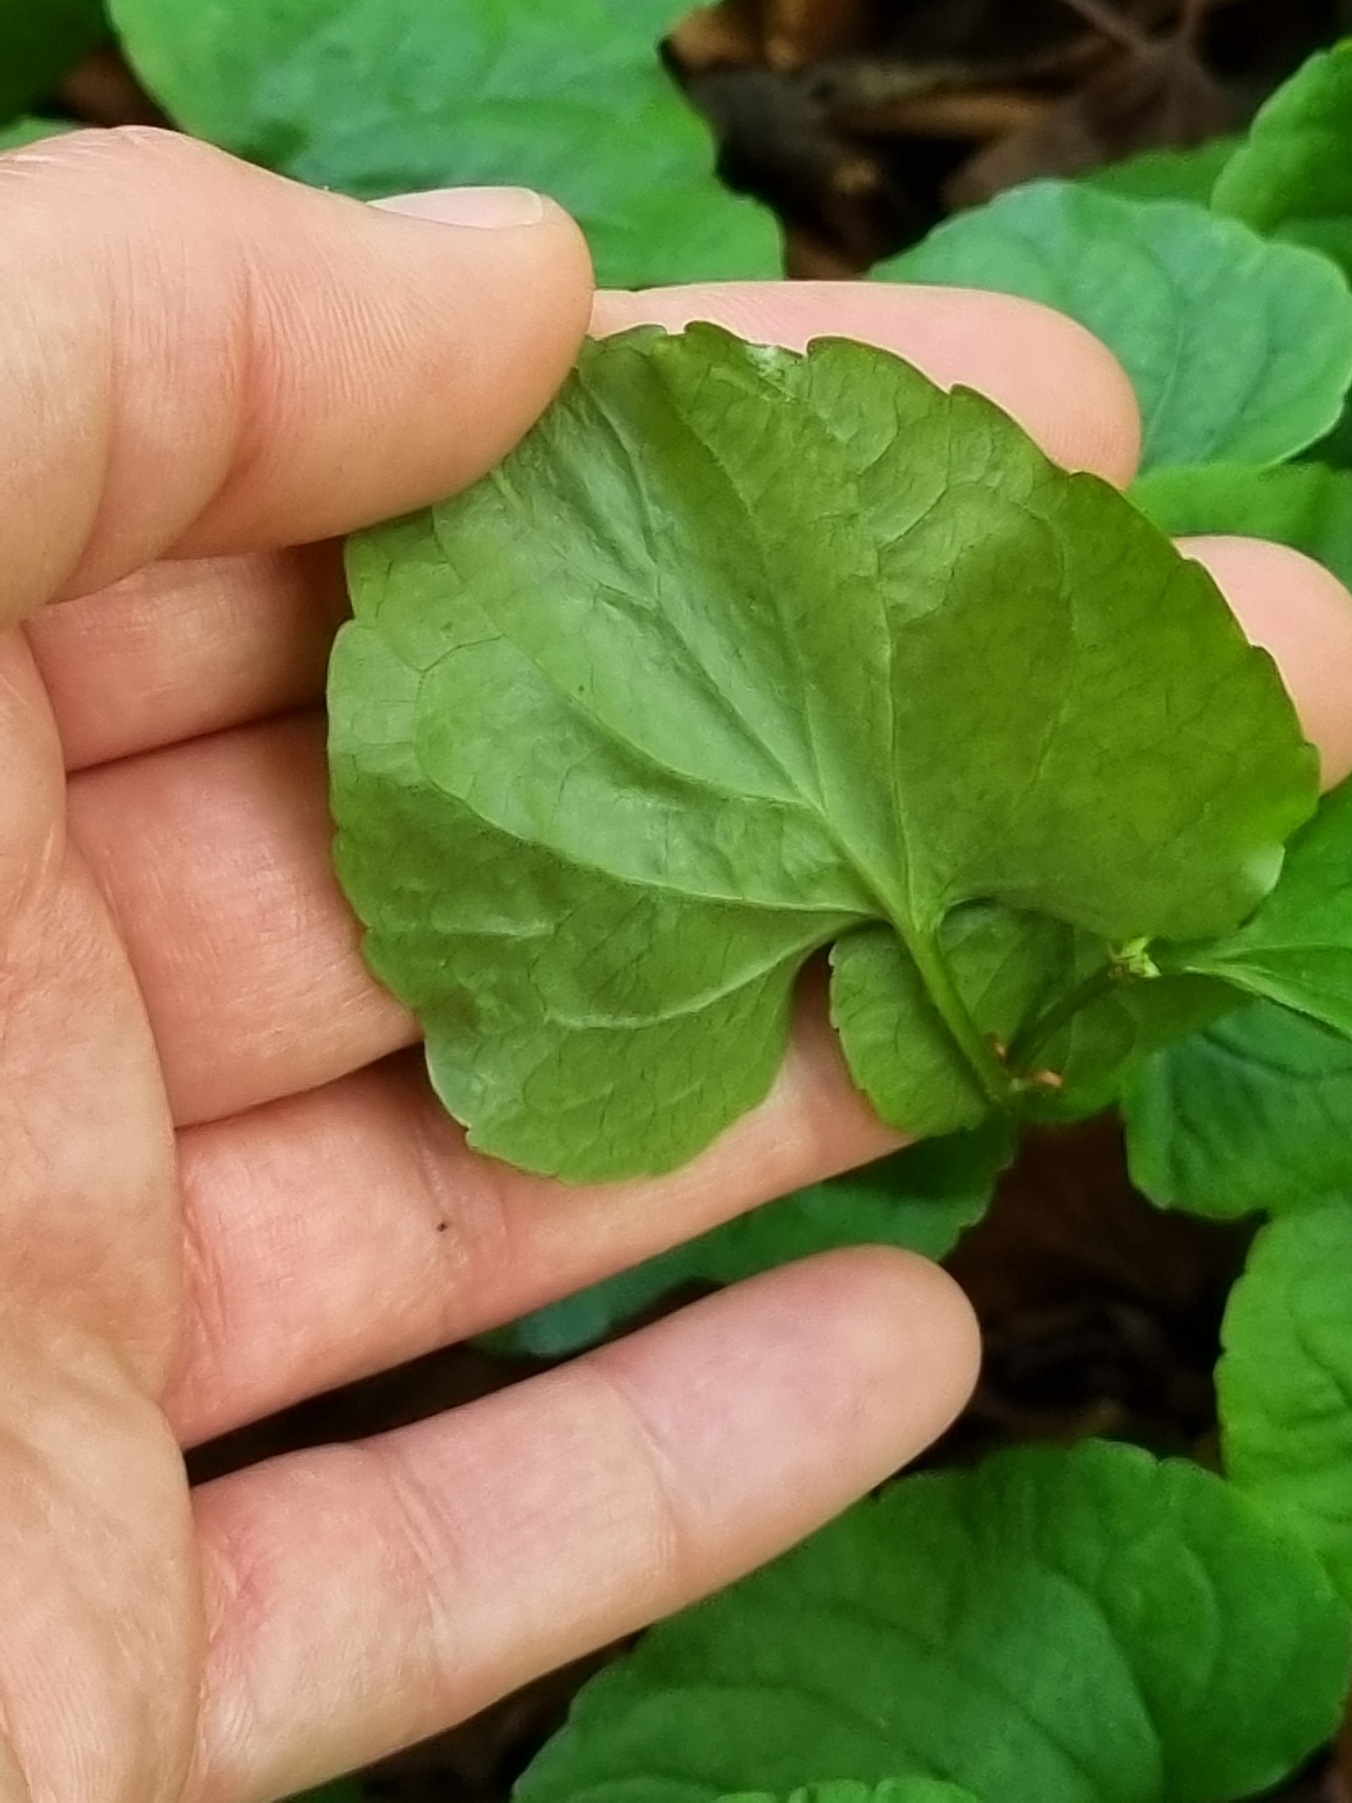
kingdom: Plantae
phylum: Tracheophyta
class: Magnoliopsida
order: Malpighiales
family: Violaceae
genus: Viola
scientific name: Viola mirabilis
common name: Forskelligblomstret viol
